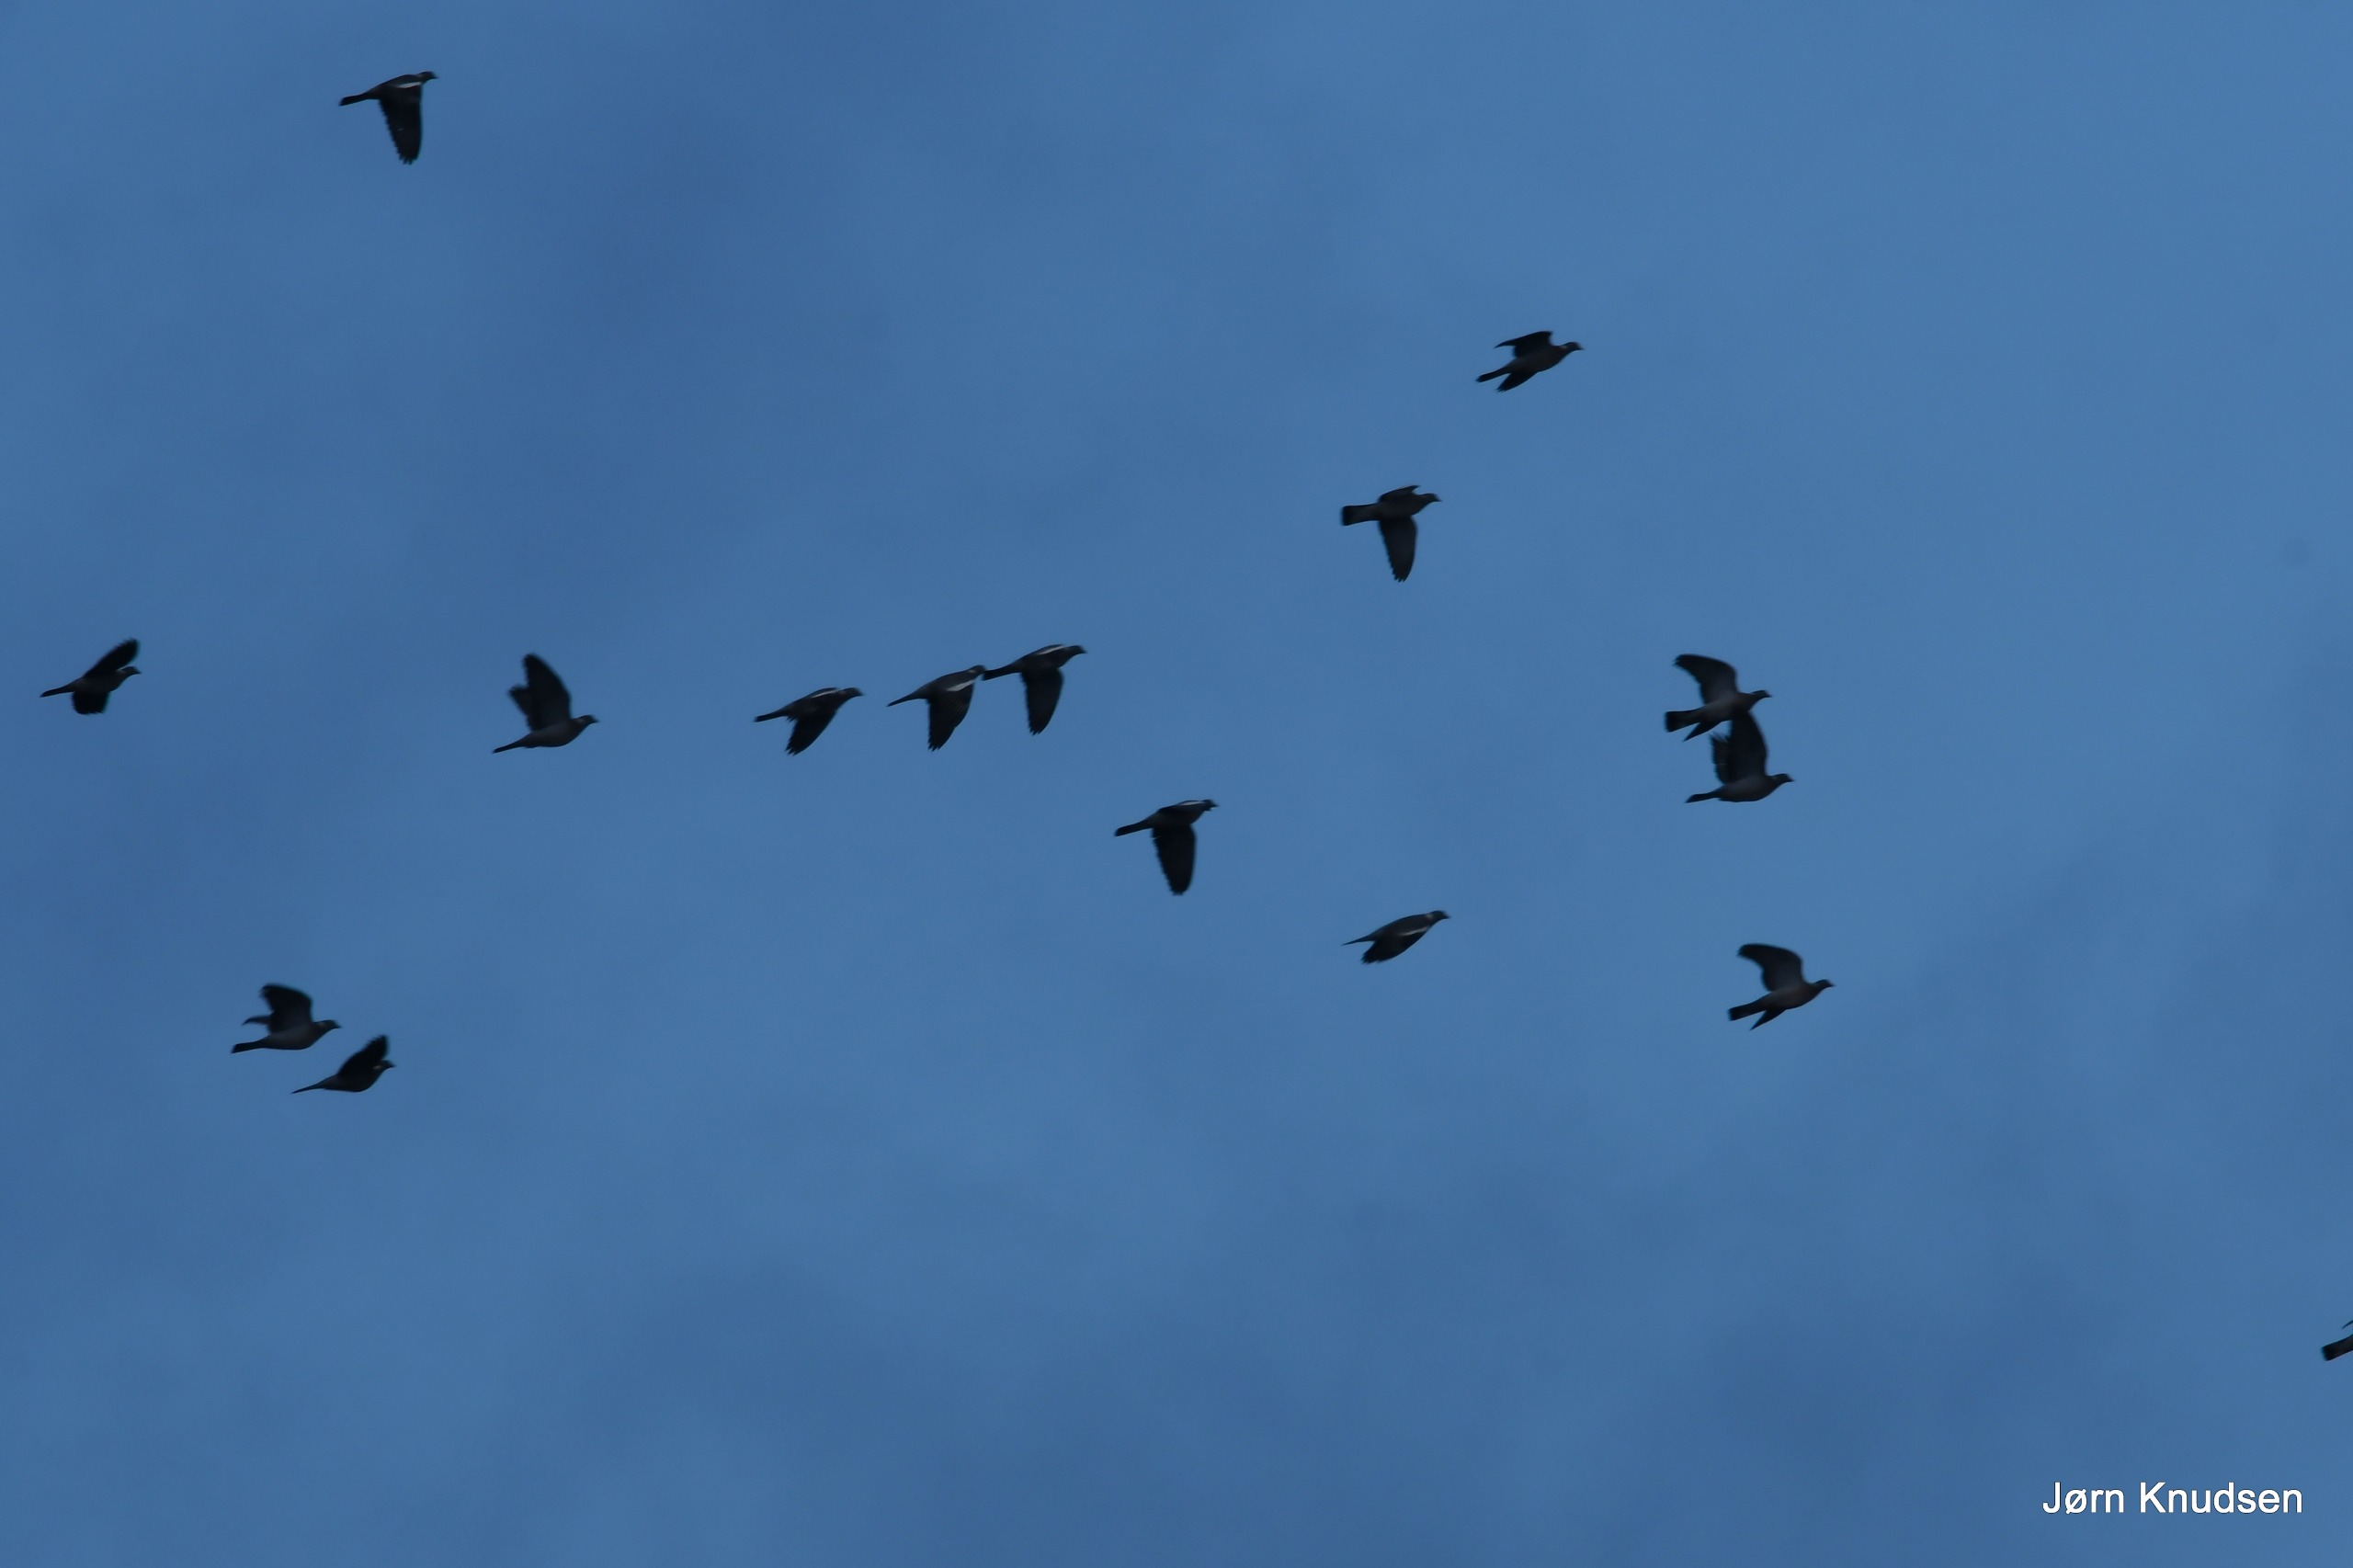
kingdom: Animalia
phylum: Chordata
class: Aves
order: Columbiformes
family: Columbidae
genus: Columba
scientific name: Columba palumbus
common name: Ringdue
